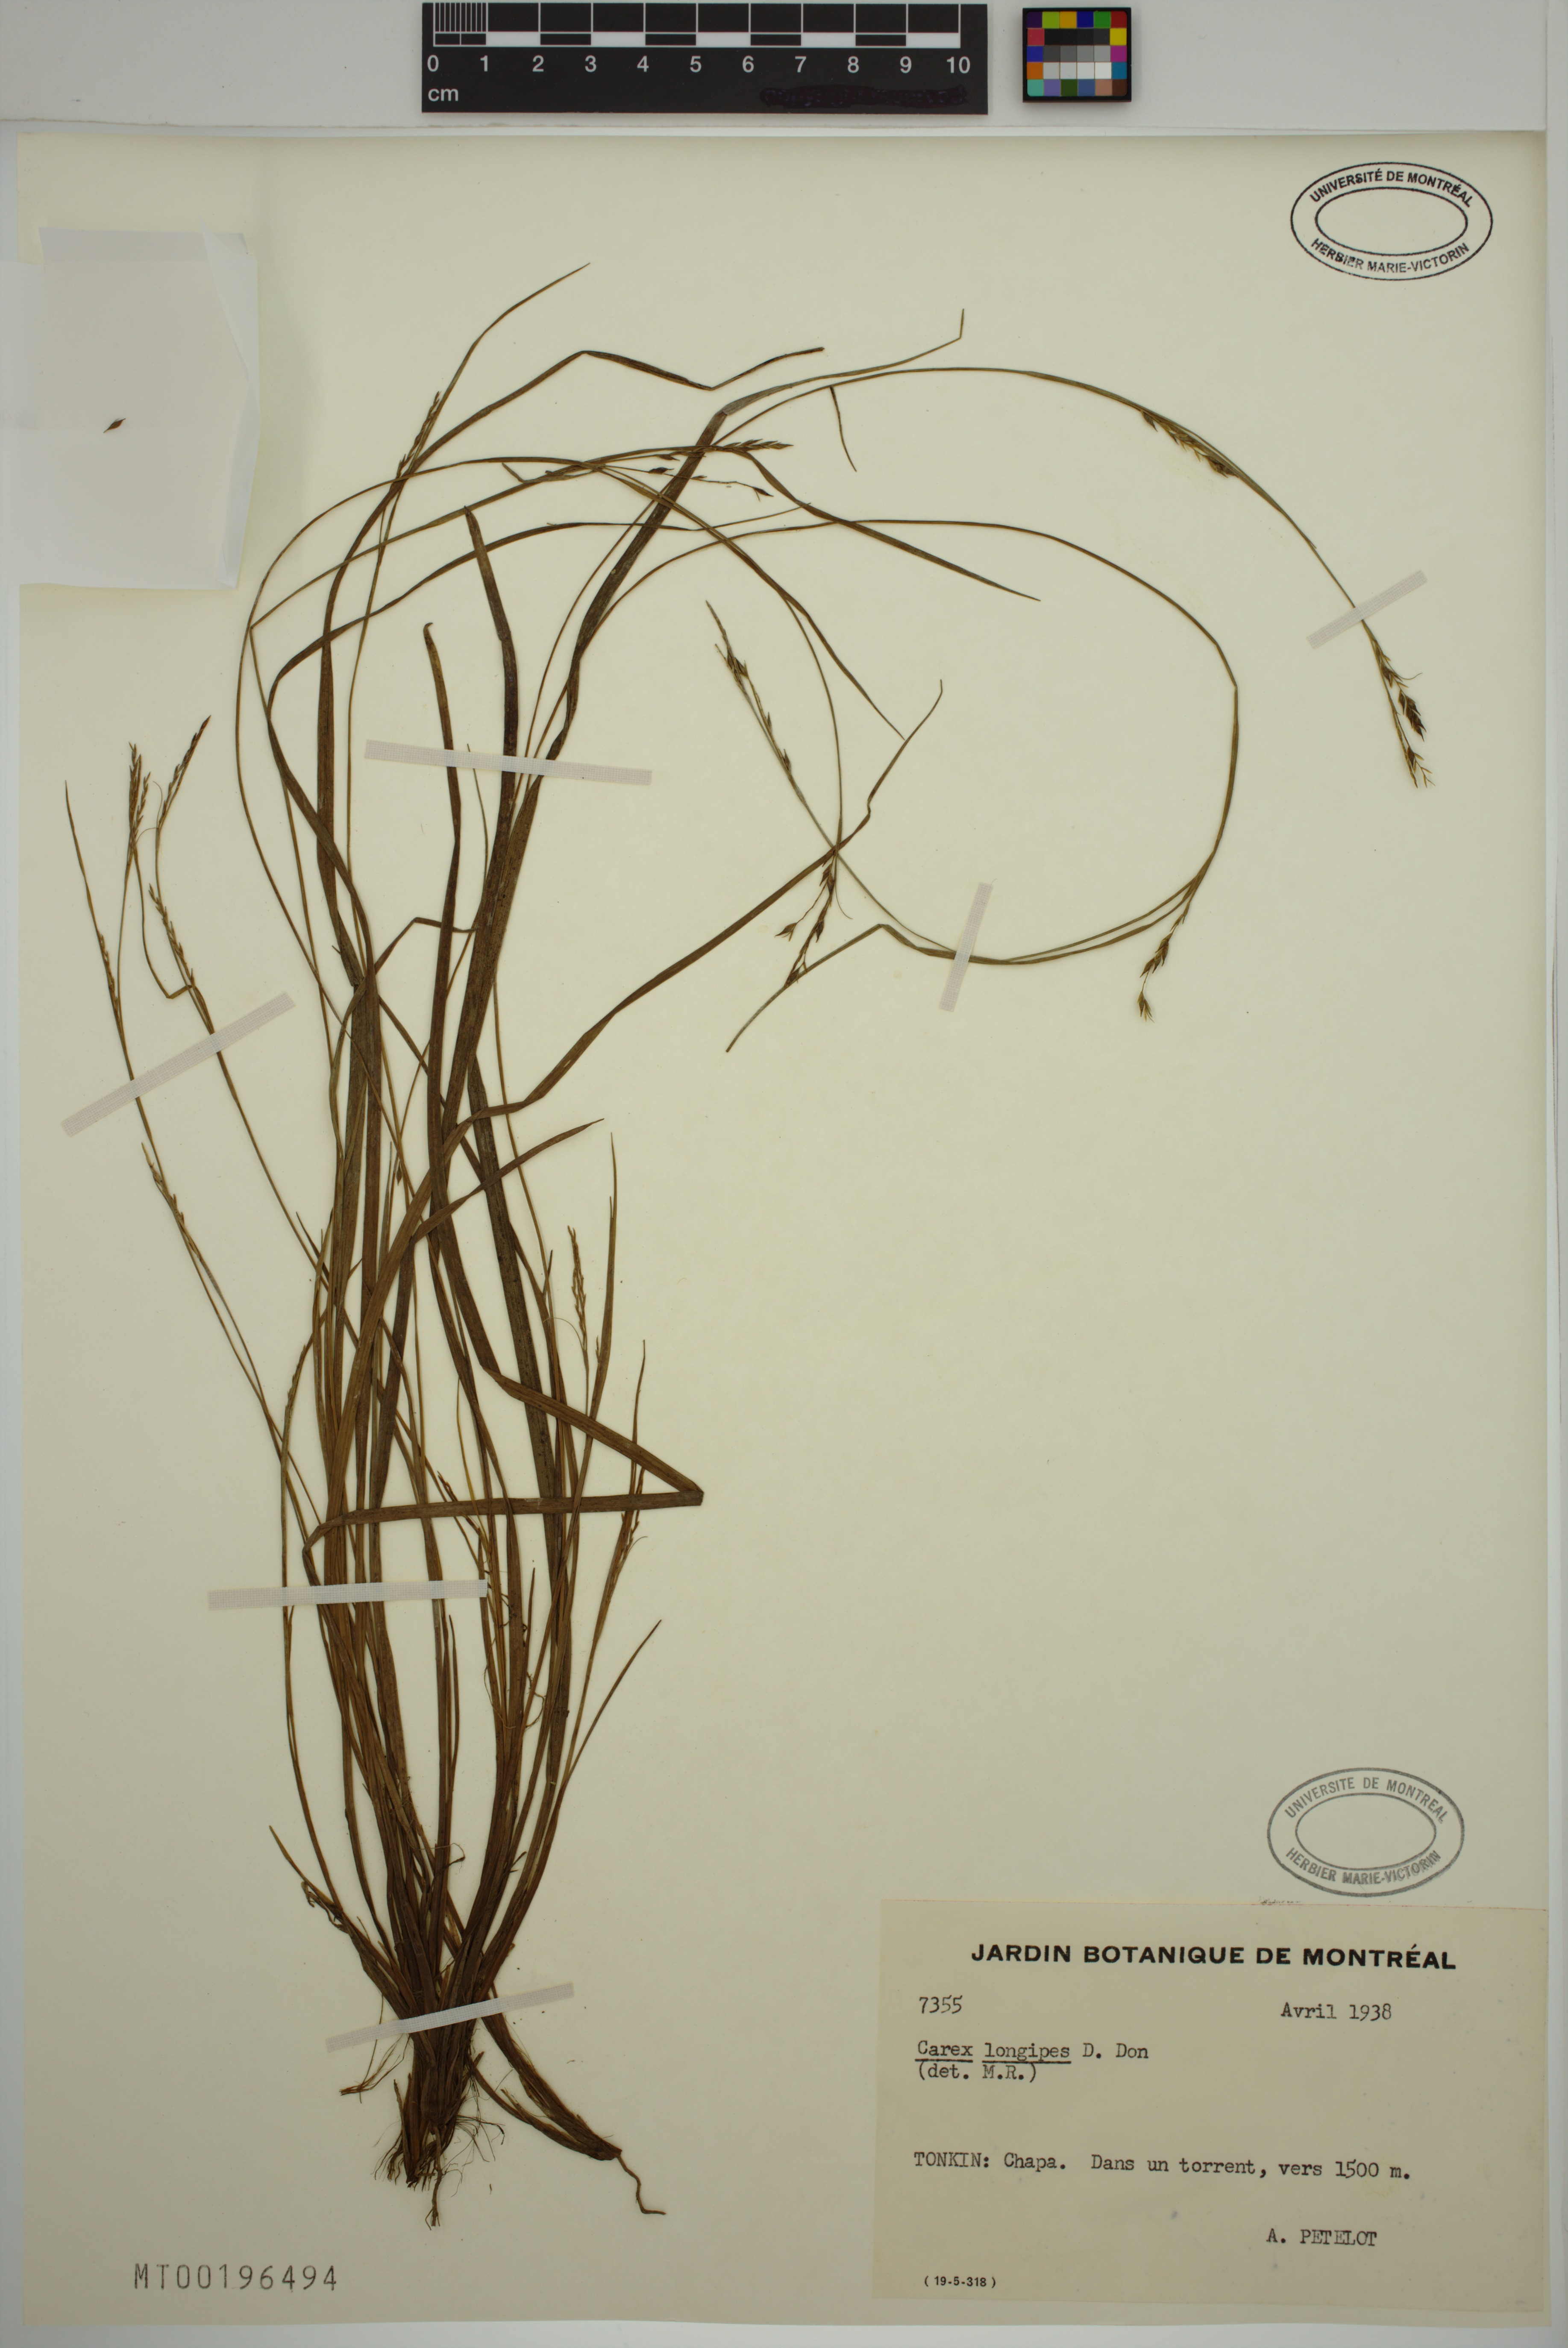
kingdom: Plantae
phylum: Tracheophyta
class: Liliopsida
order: Poales
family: Cyperaceae
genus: Carex
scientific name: Carex longipes
